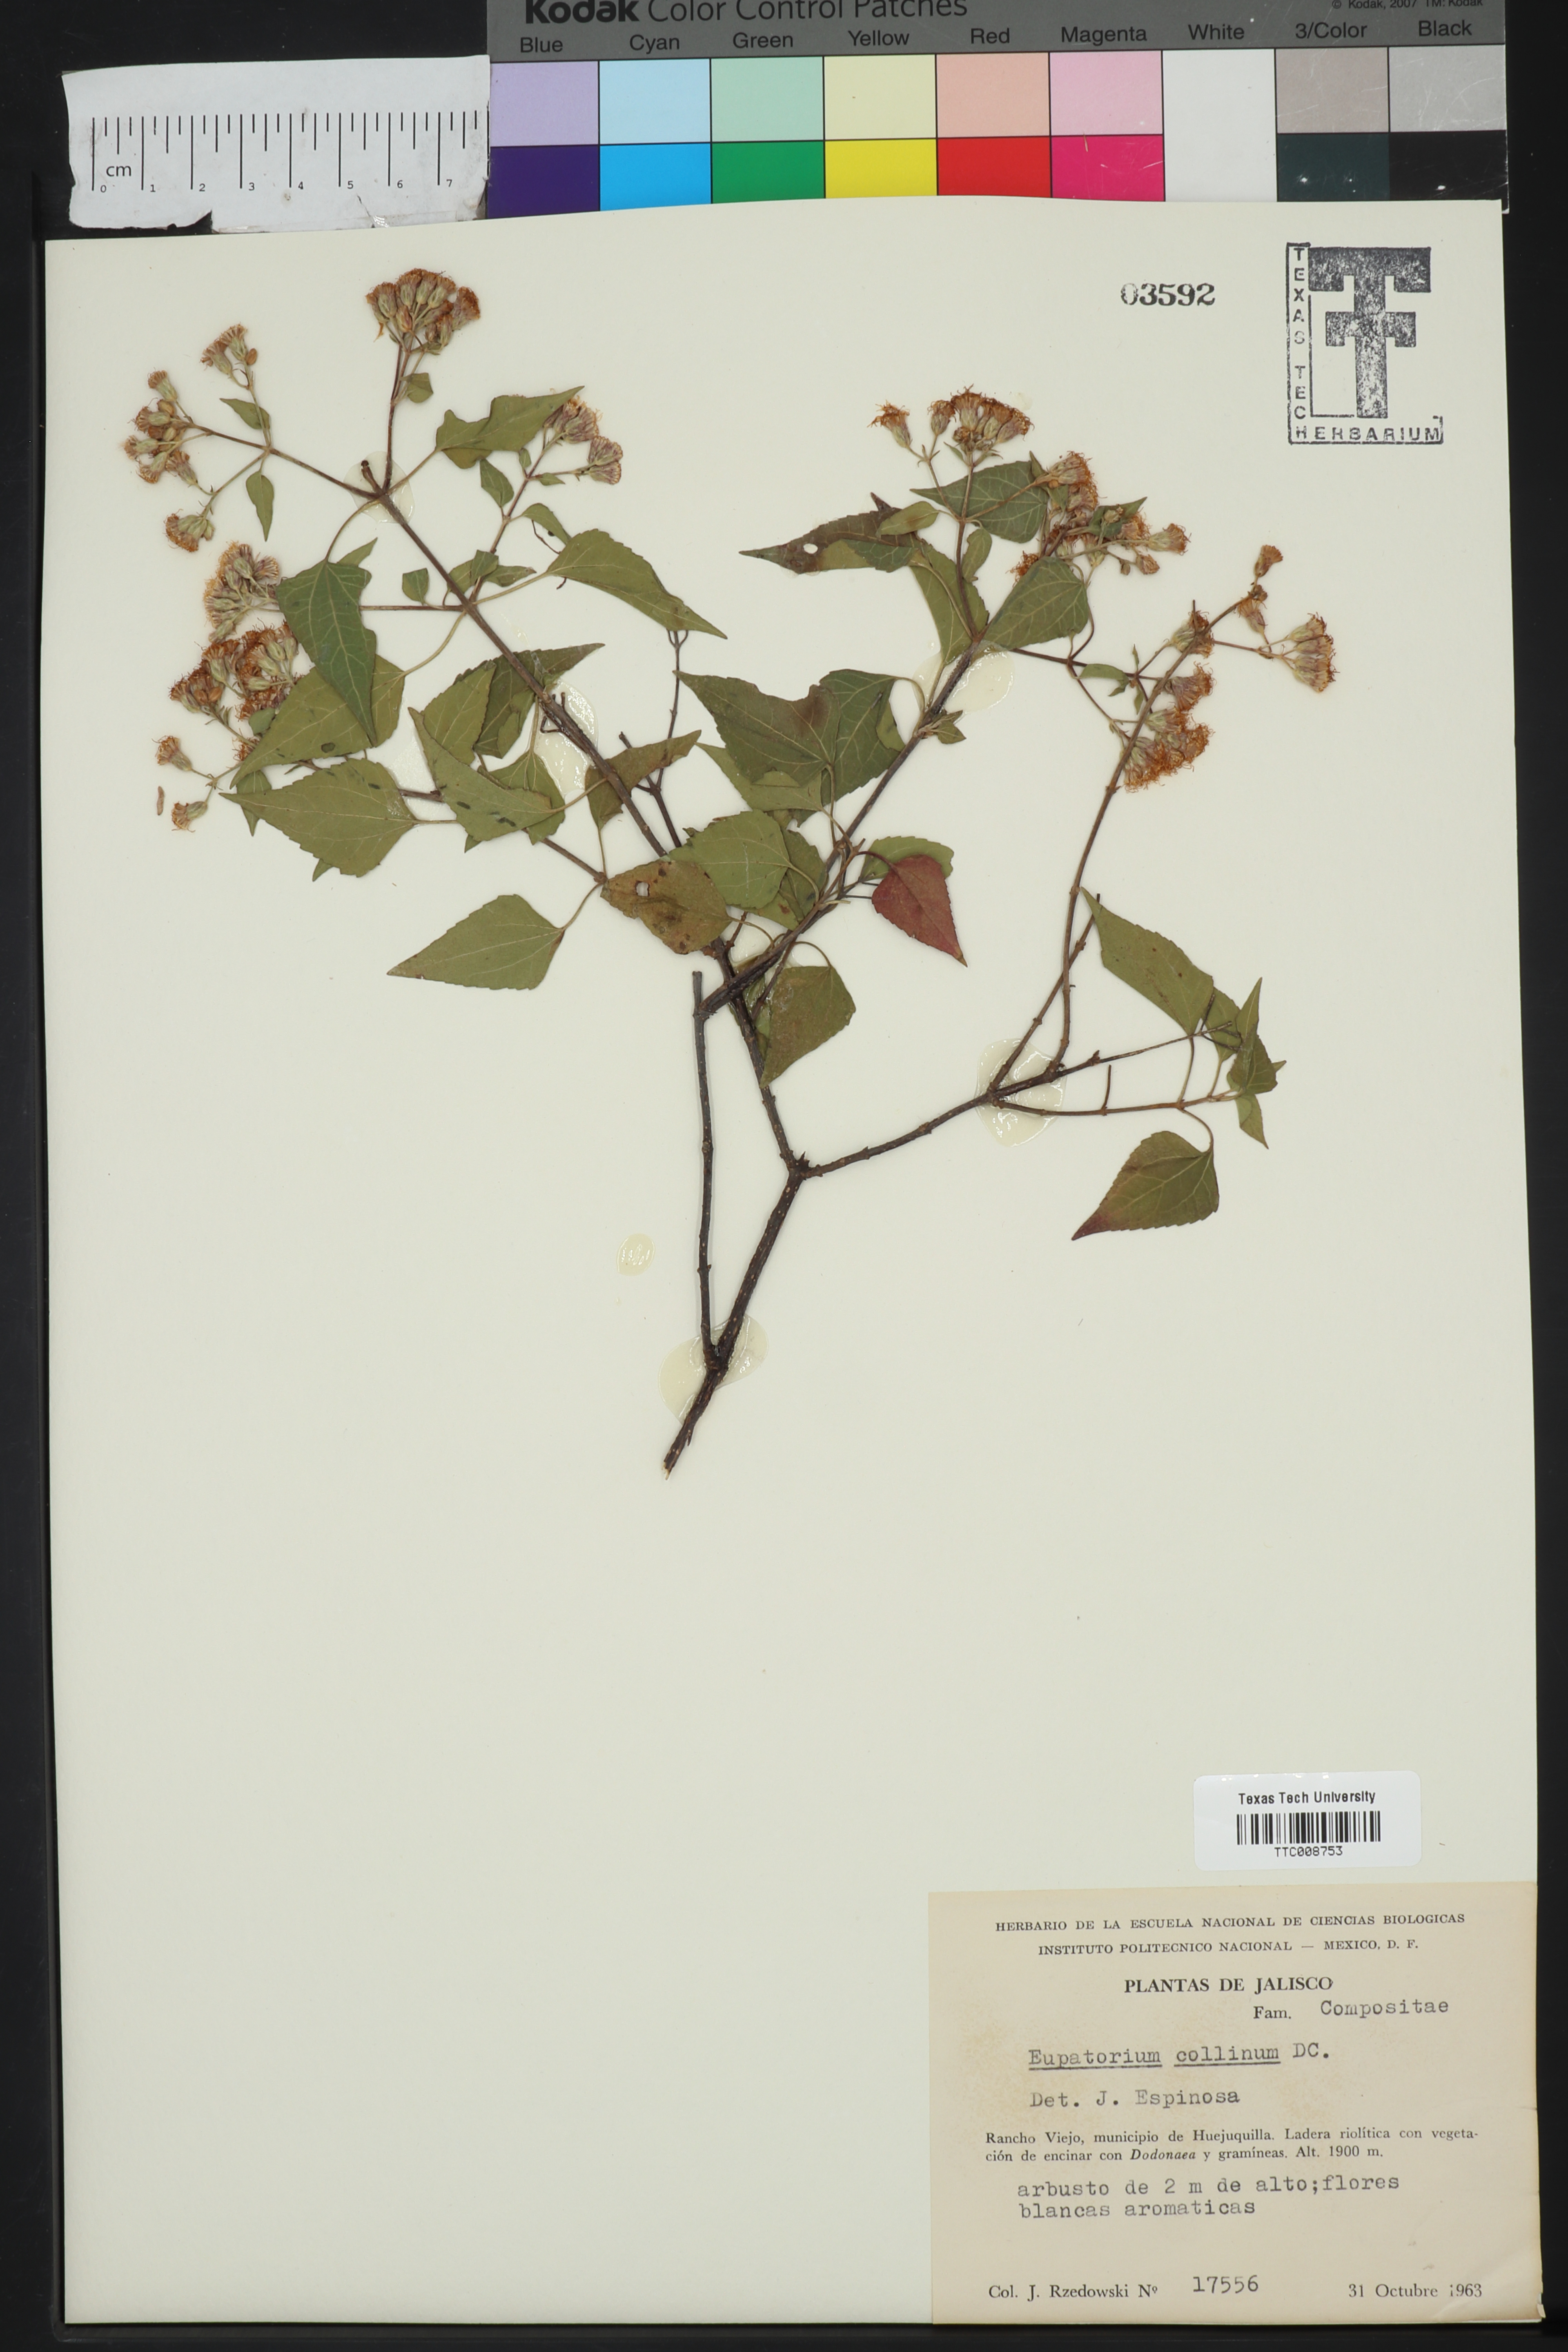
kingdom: Plantae
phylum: Tracheophyta
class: Magnoliopsida
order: Asterales
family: Asteraceae
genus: Chromolaena
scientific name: Chromolaena collina
